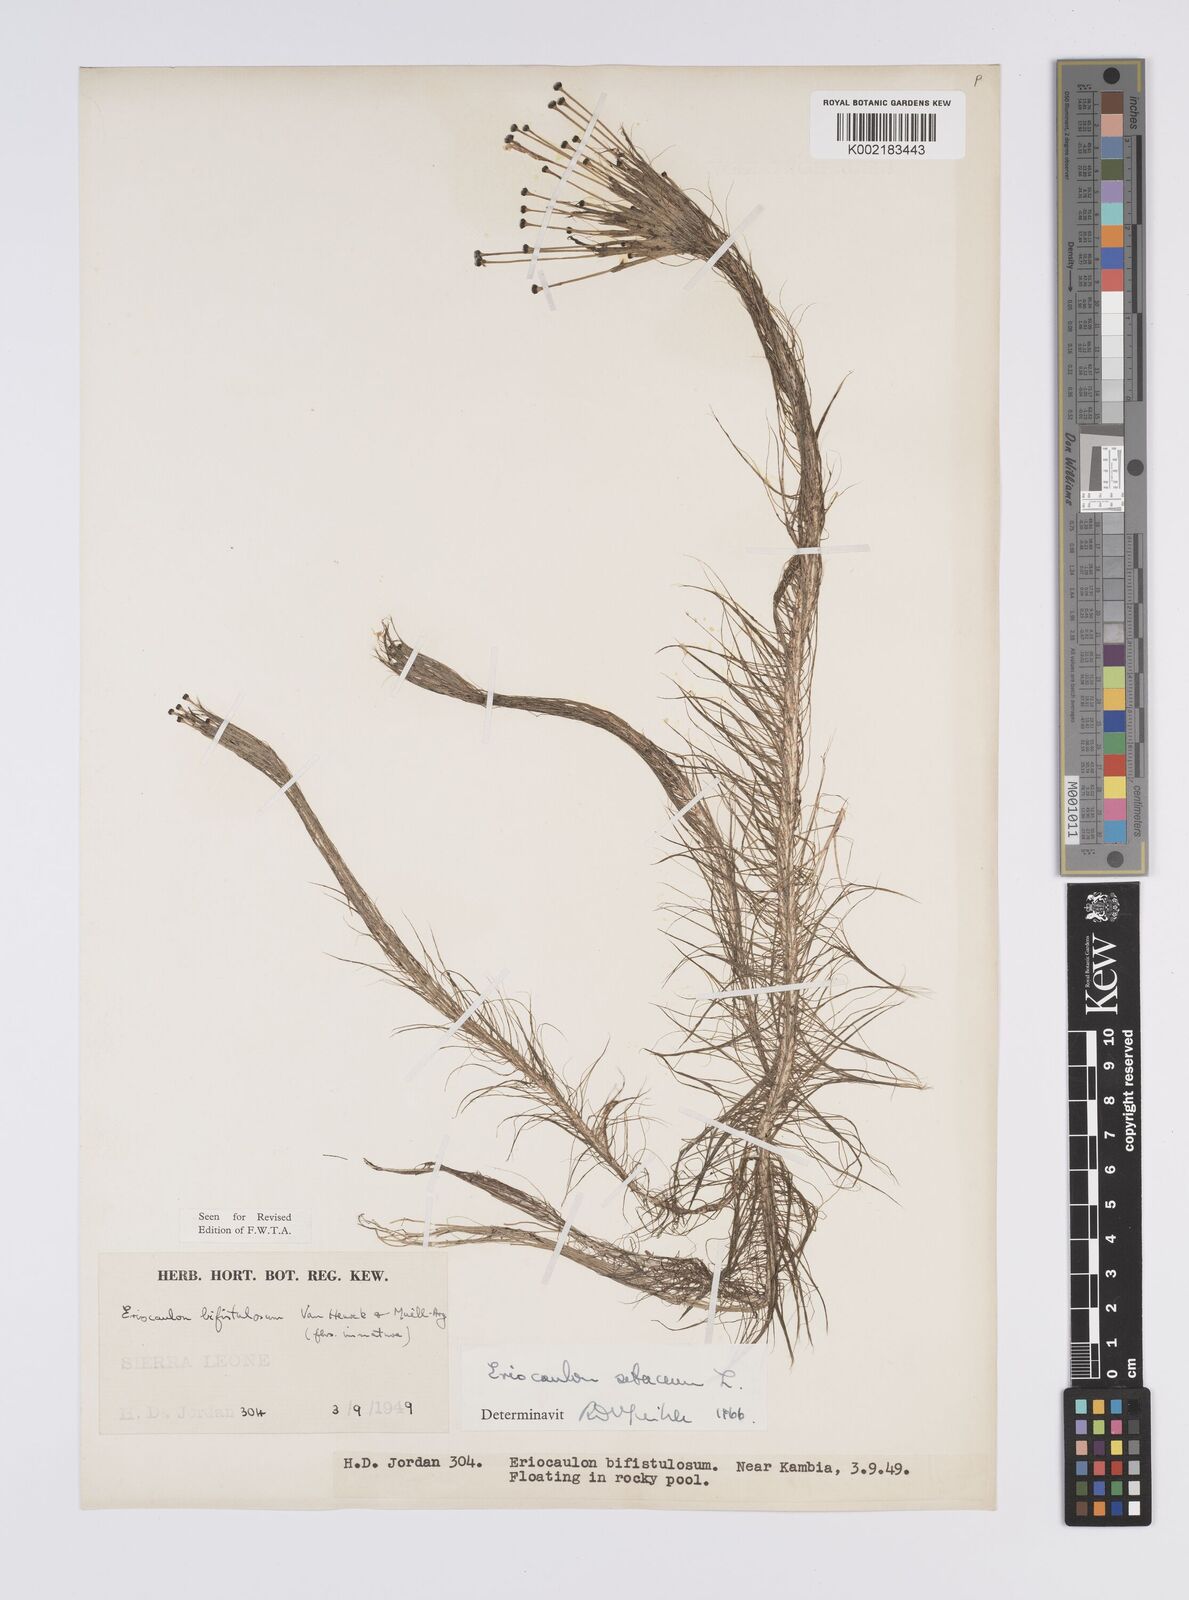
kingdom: Plantae
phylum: Tracheophyta
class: Liliopsida
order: Poales
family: Eriocaulaceae
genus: Eriocaulon
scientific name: Eriocaulon setaceum
